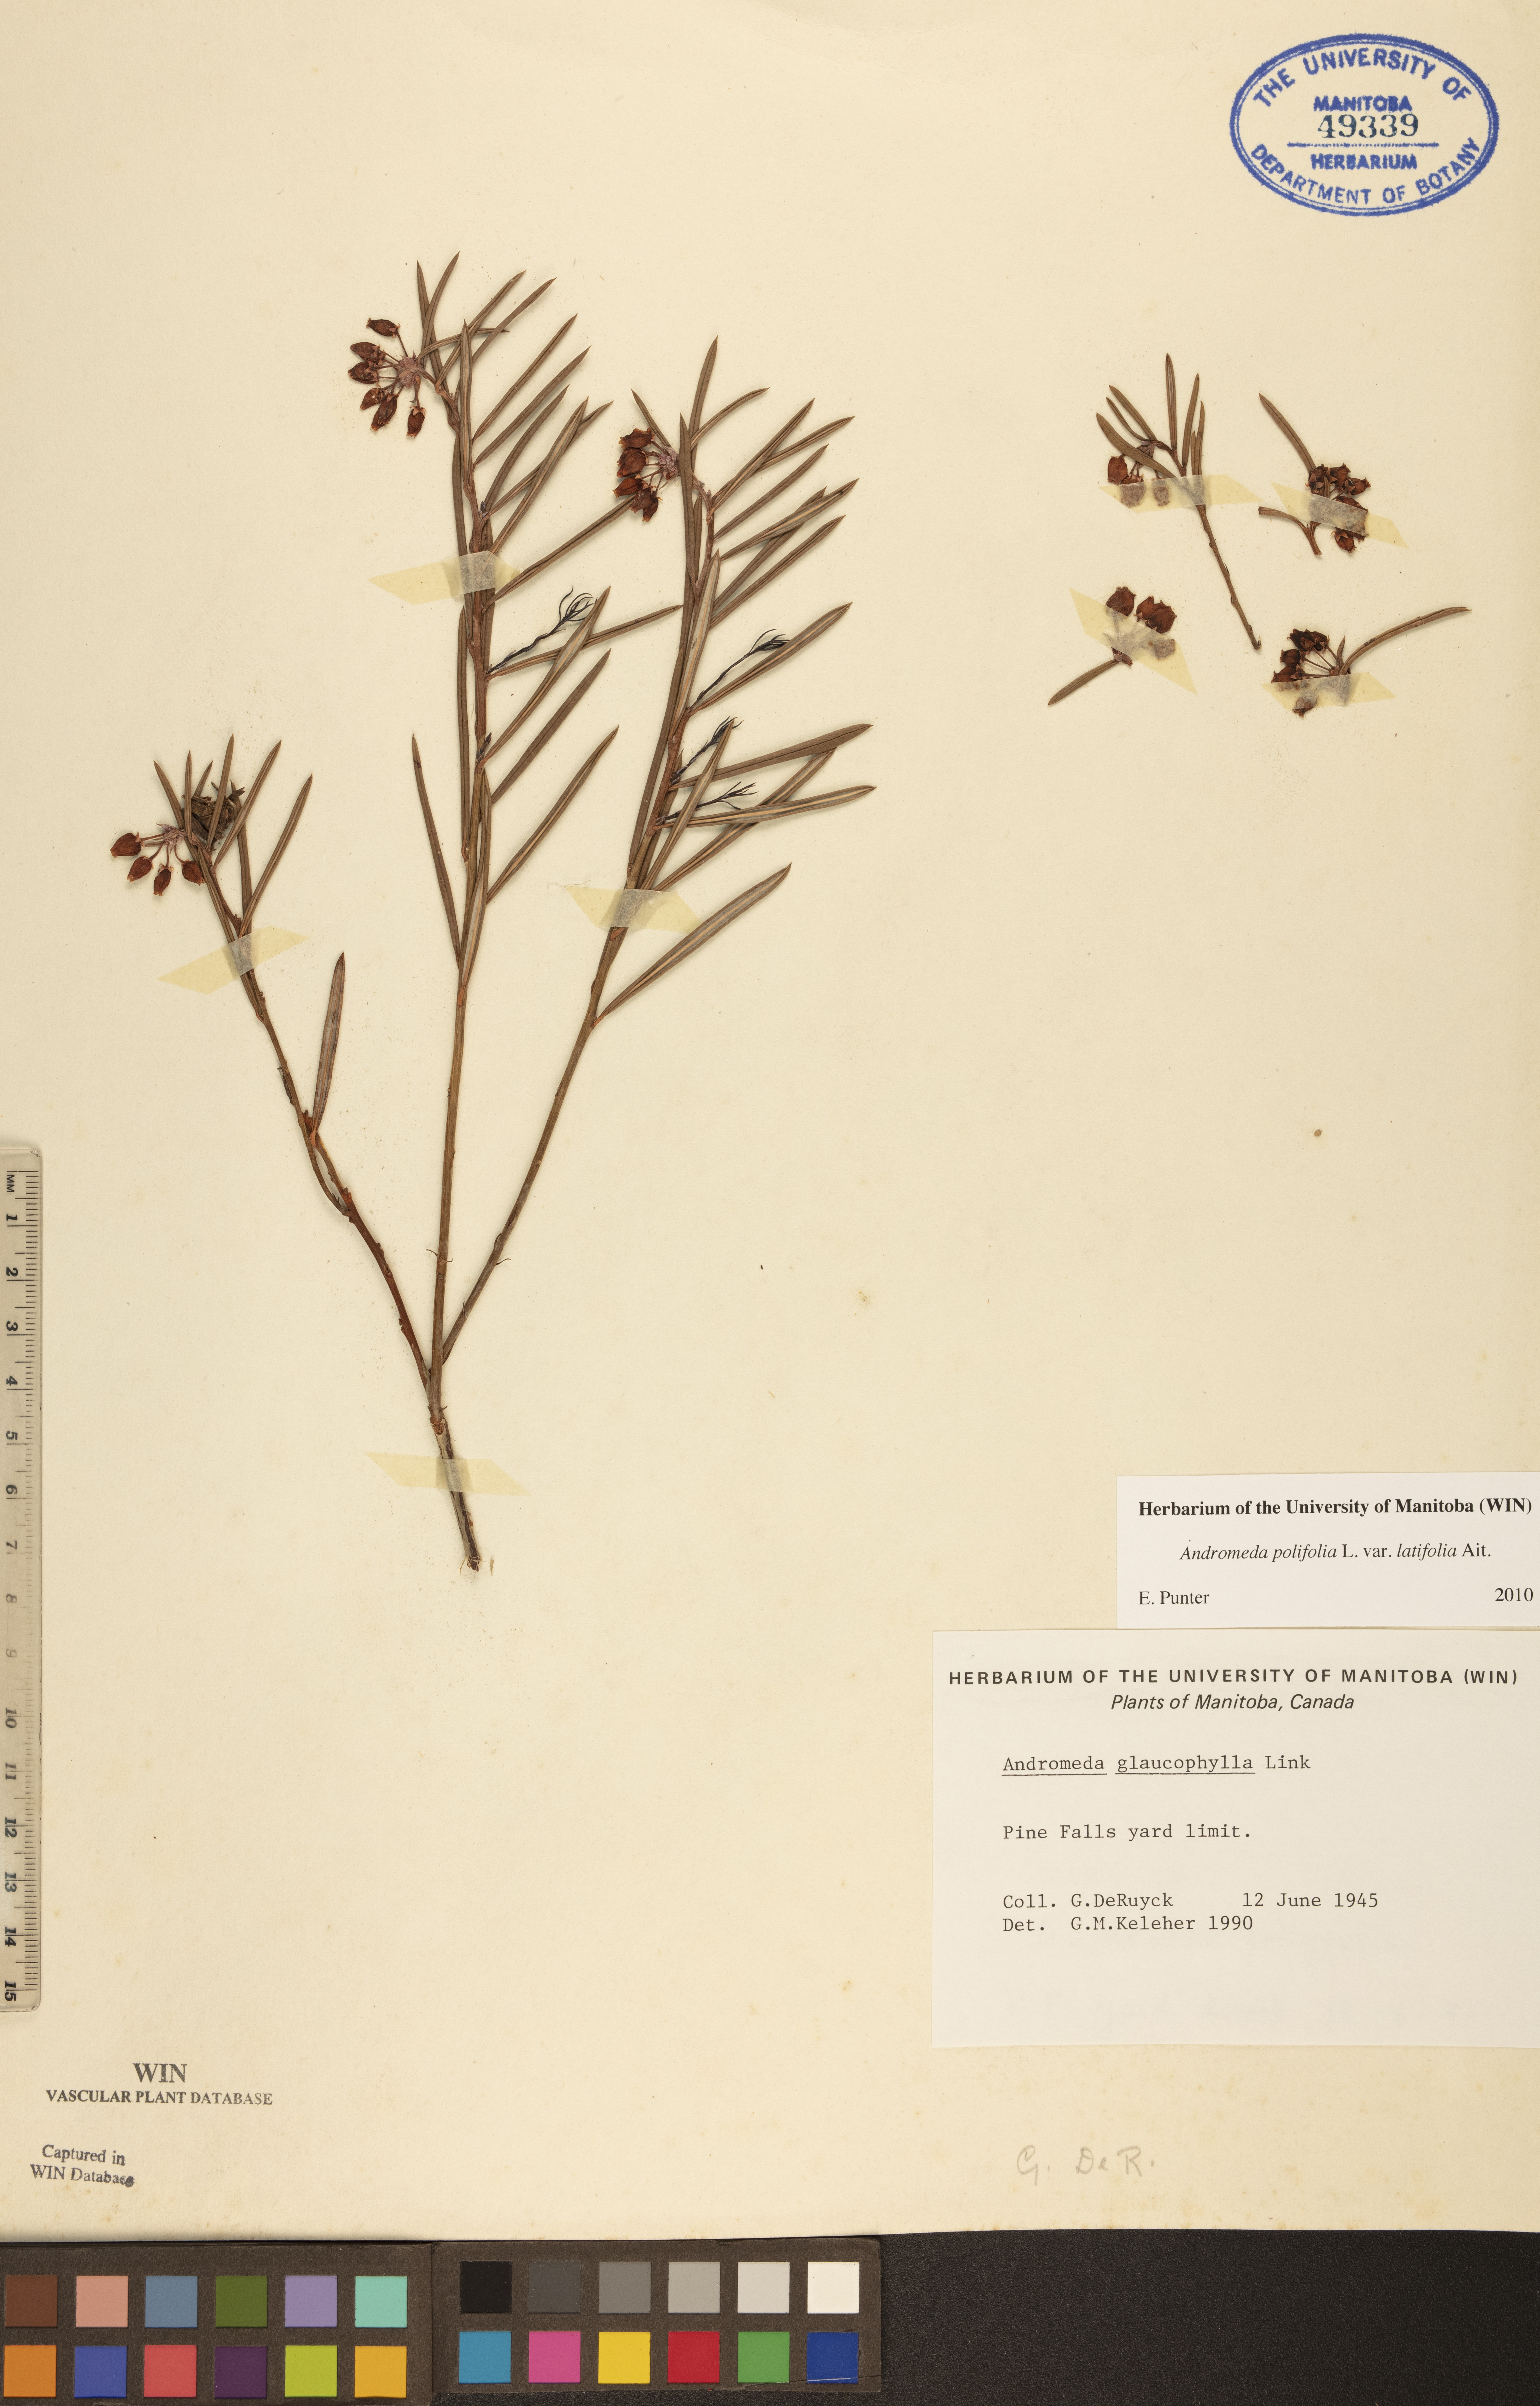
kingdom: Plantae
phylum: Tracheophyta
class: Magnoliopsida
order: Ericales
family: Ericaceae
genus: Andromeda
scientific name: Andromeda polifolia
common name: Bog-rosemary
